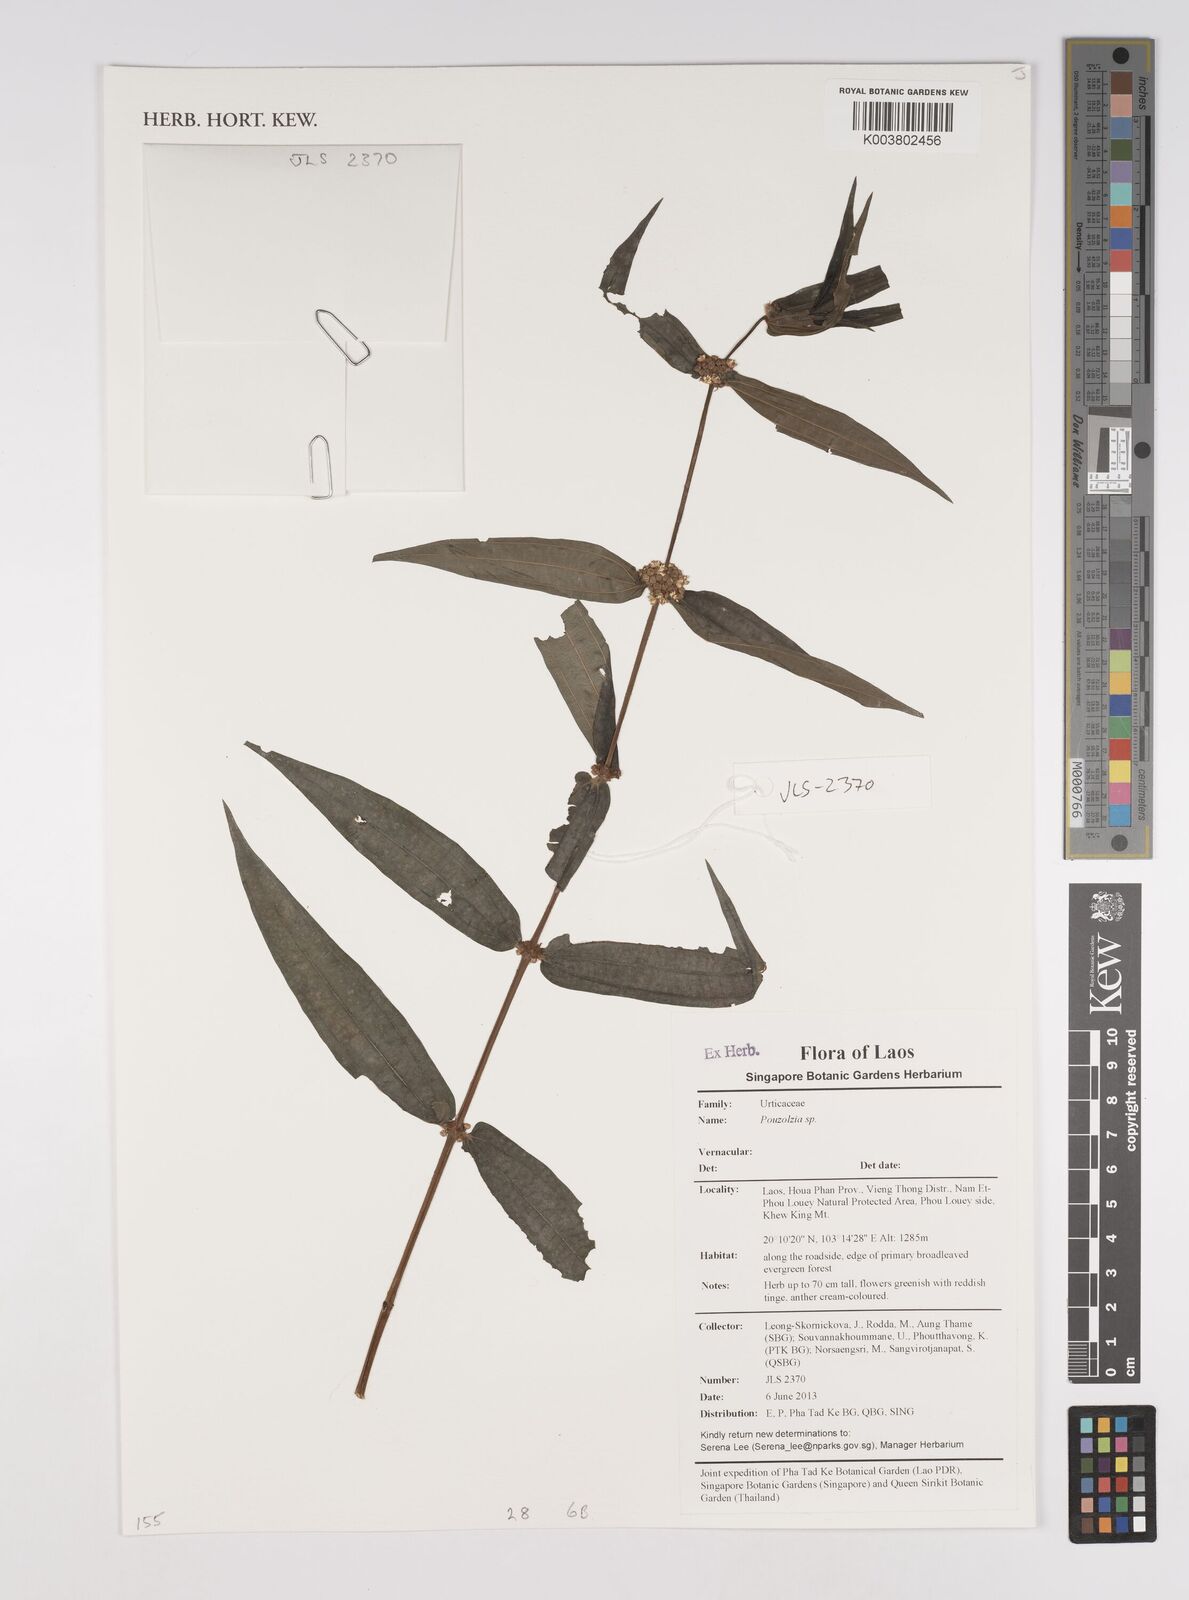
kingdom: Plantae
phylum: Tracheophyta
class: Magnoliopsida
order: Rosales
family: Urticaceae
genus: Pouzolzia
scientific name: Pouzolzia
